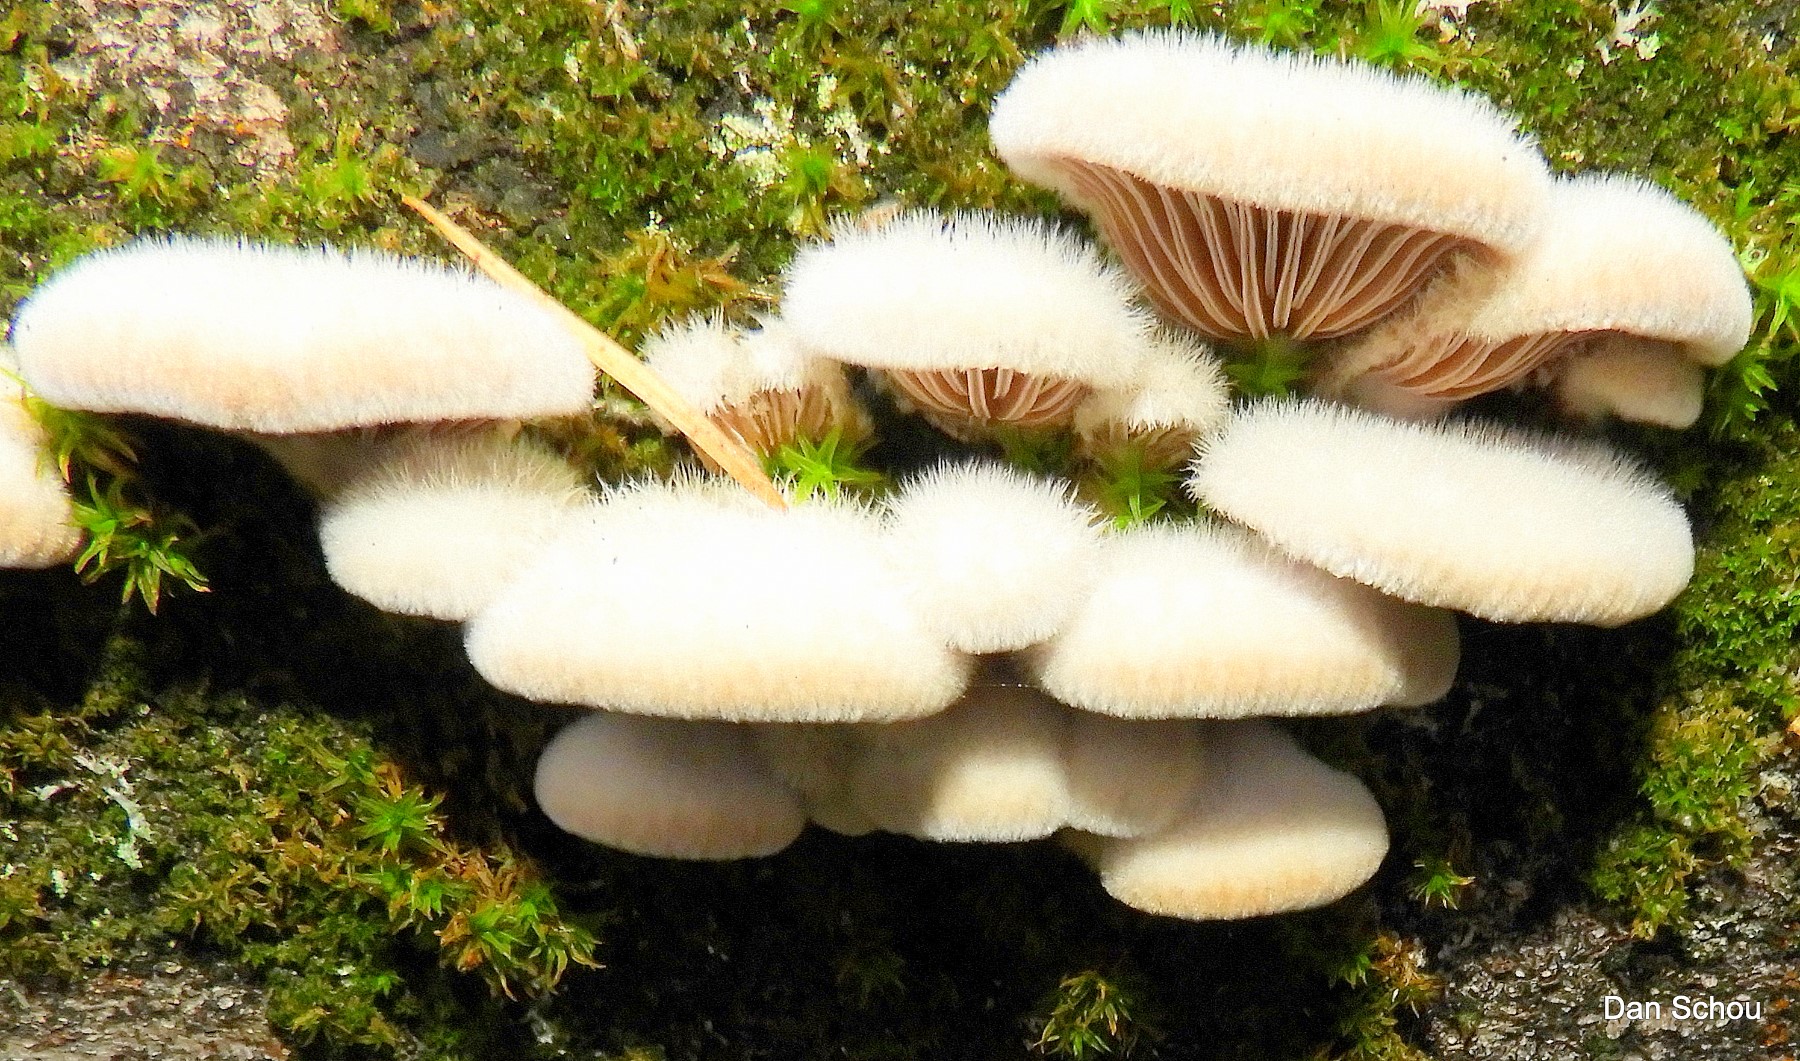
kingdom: Fungi
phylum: Basidiomycota
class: Agaricomycetes
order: Agaricales
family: Schizophyllaceae
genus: Schizophyllum
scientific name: Schizophyllum commune
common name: kløvblad
